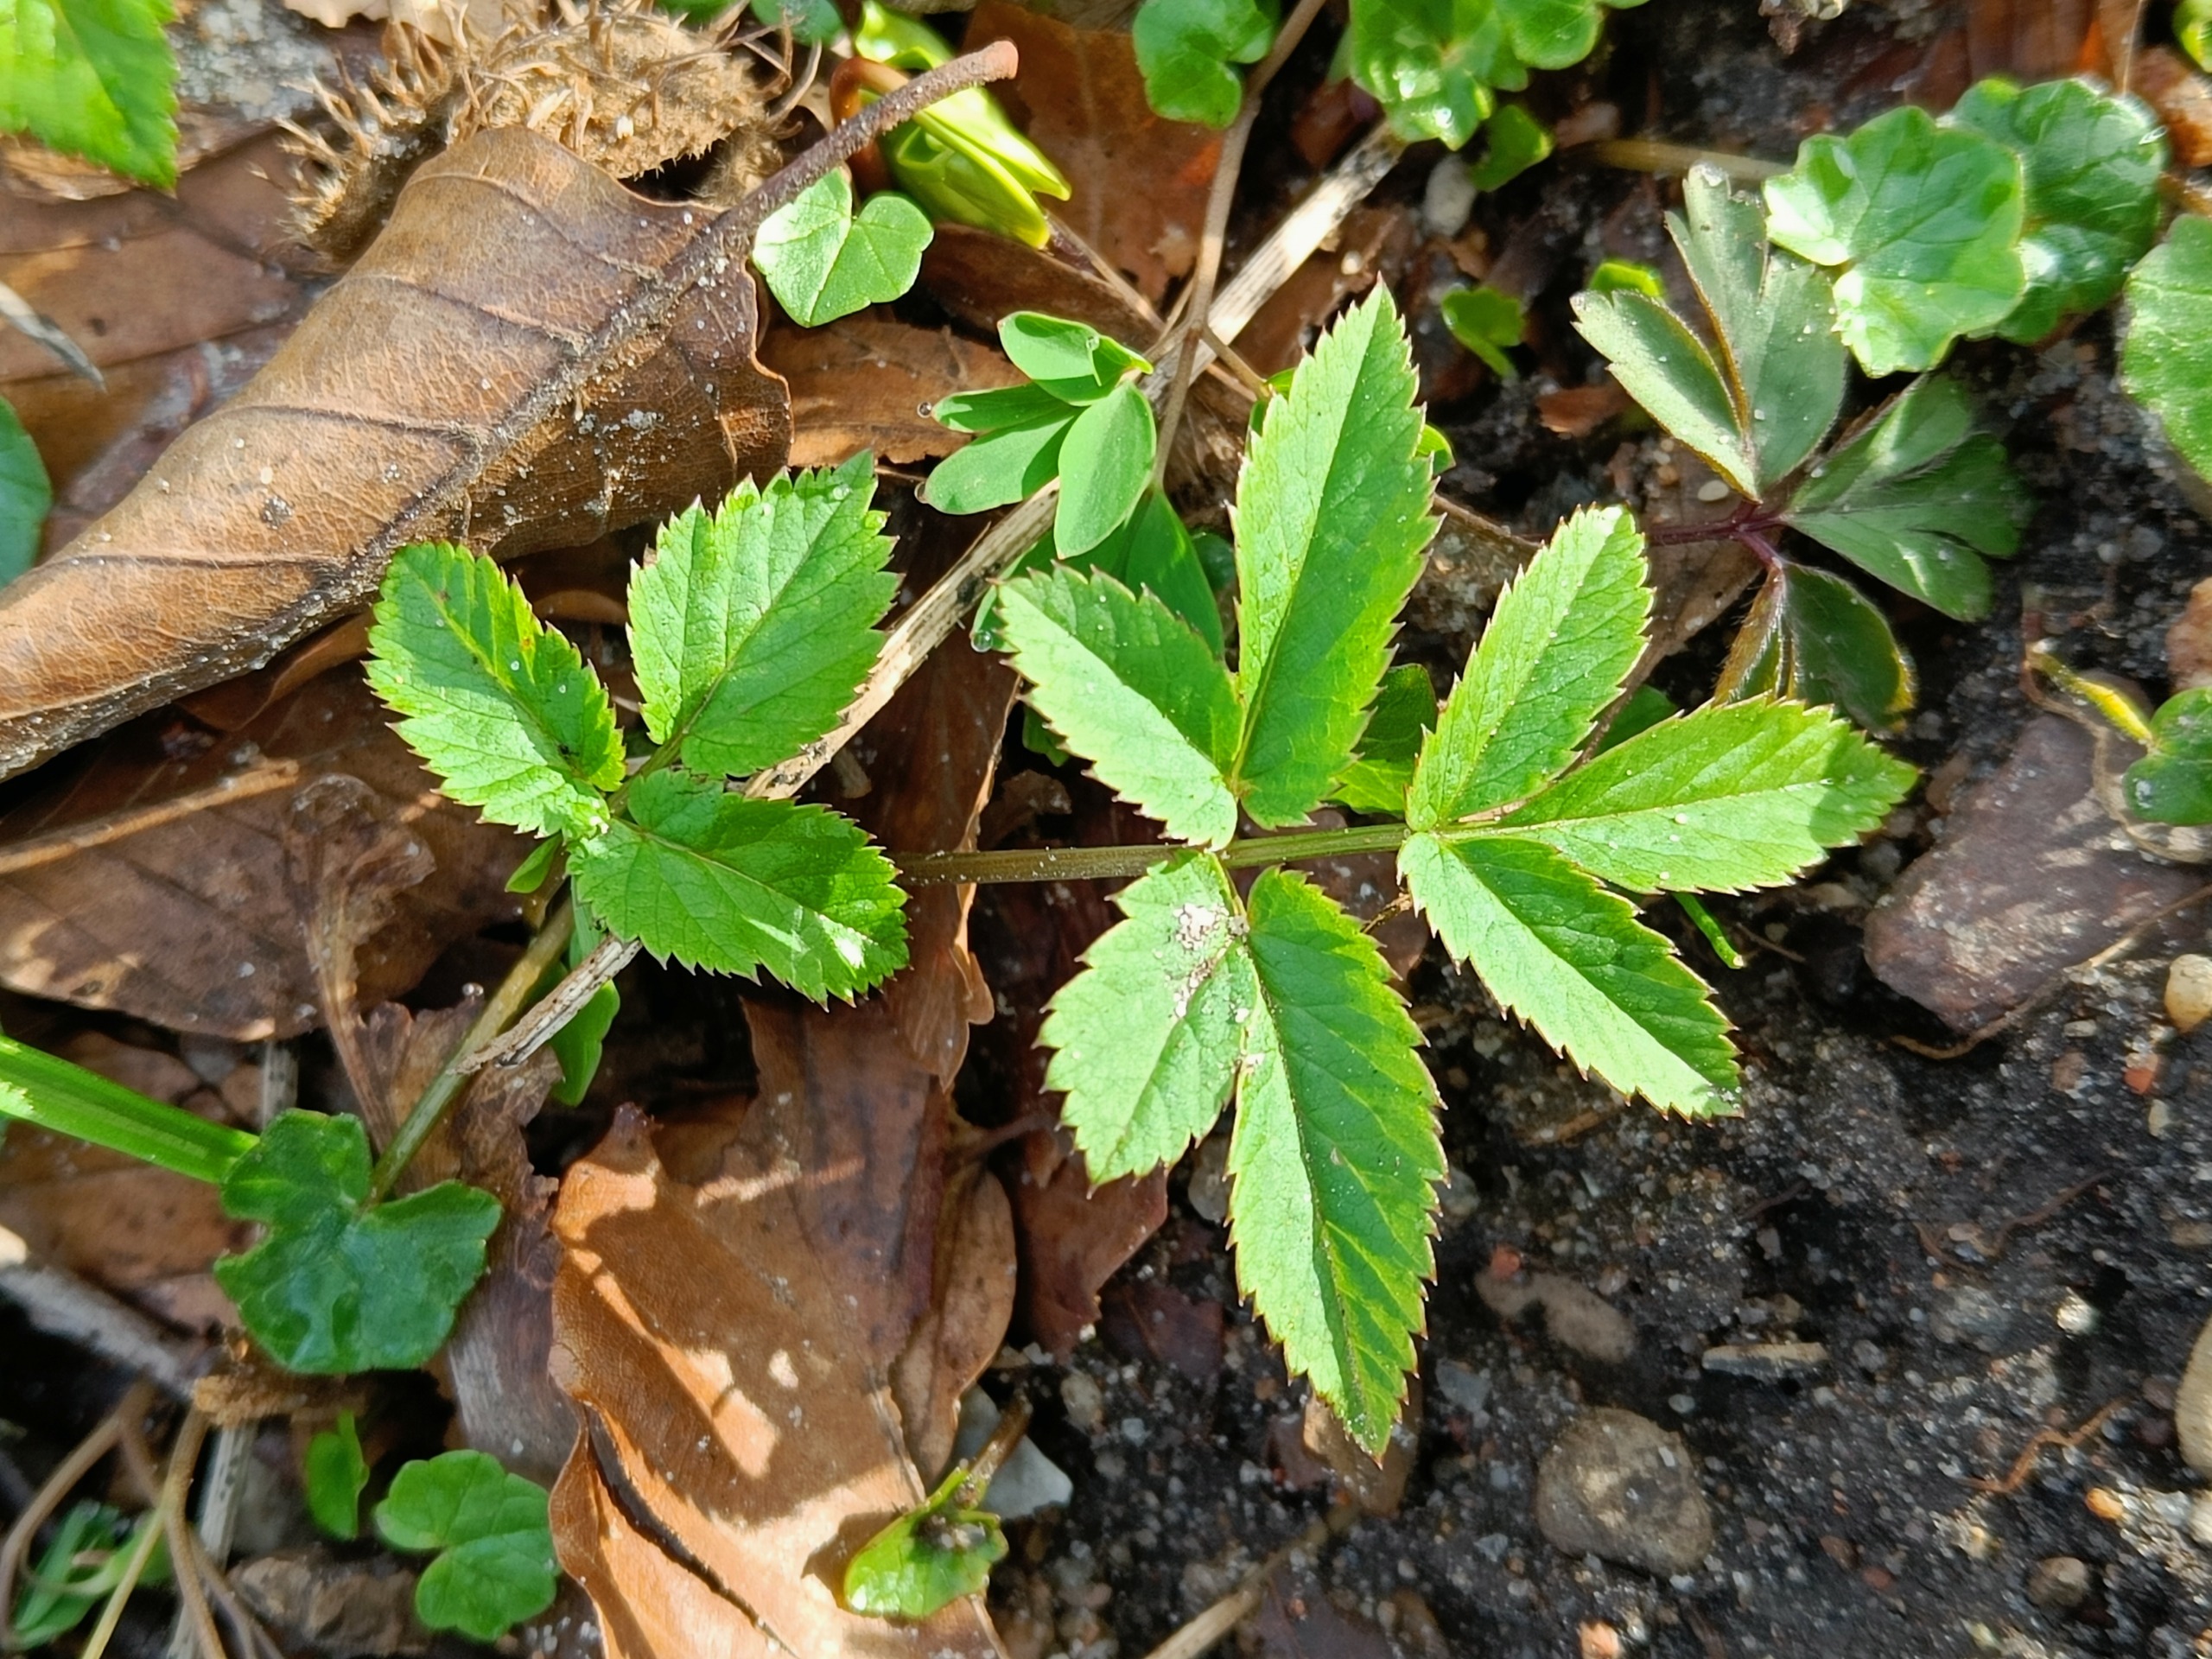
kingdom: Plantae
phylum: Tracheophyta
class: Magnoliopsida
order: Apiales
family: Apiaceae
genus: Aegopodium
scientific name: Aegopodium podagraria
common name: Skvalderkål
